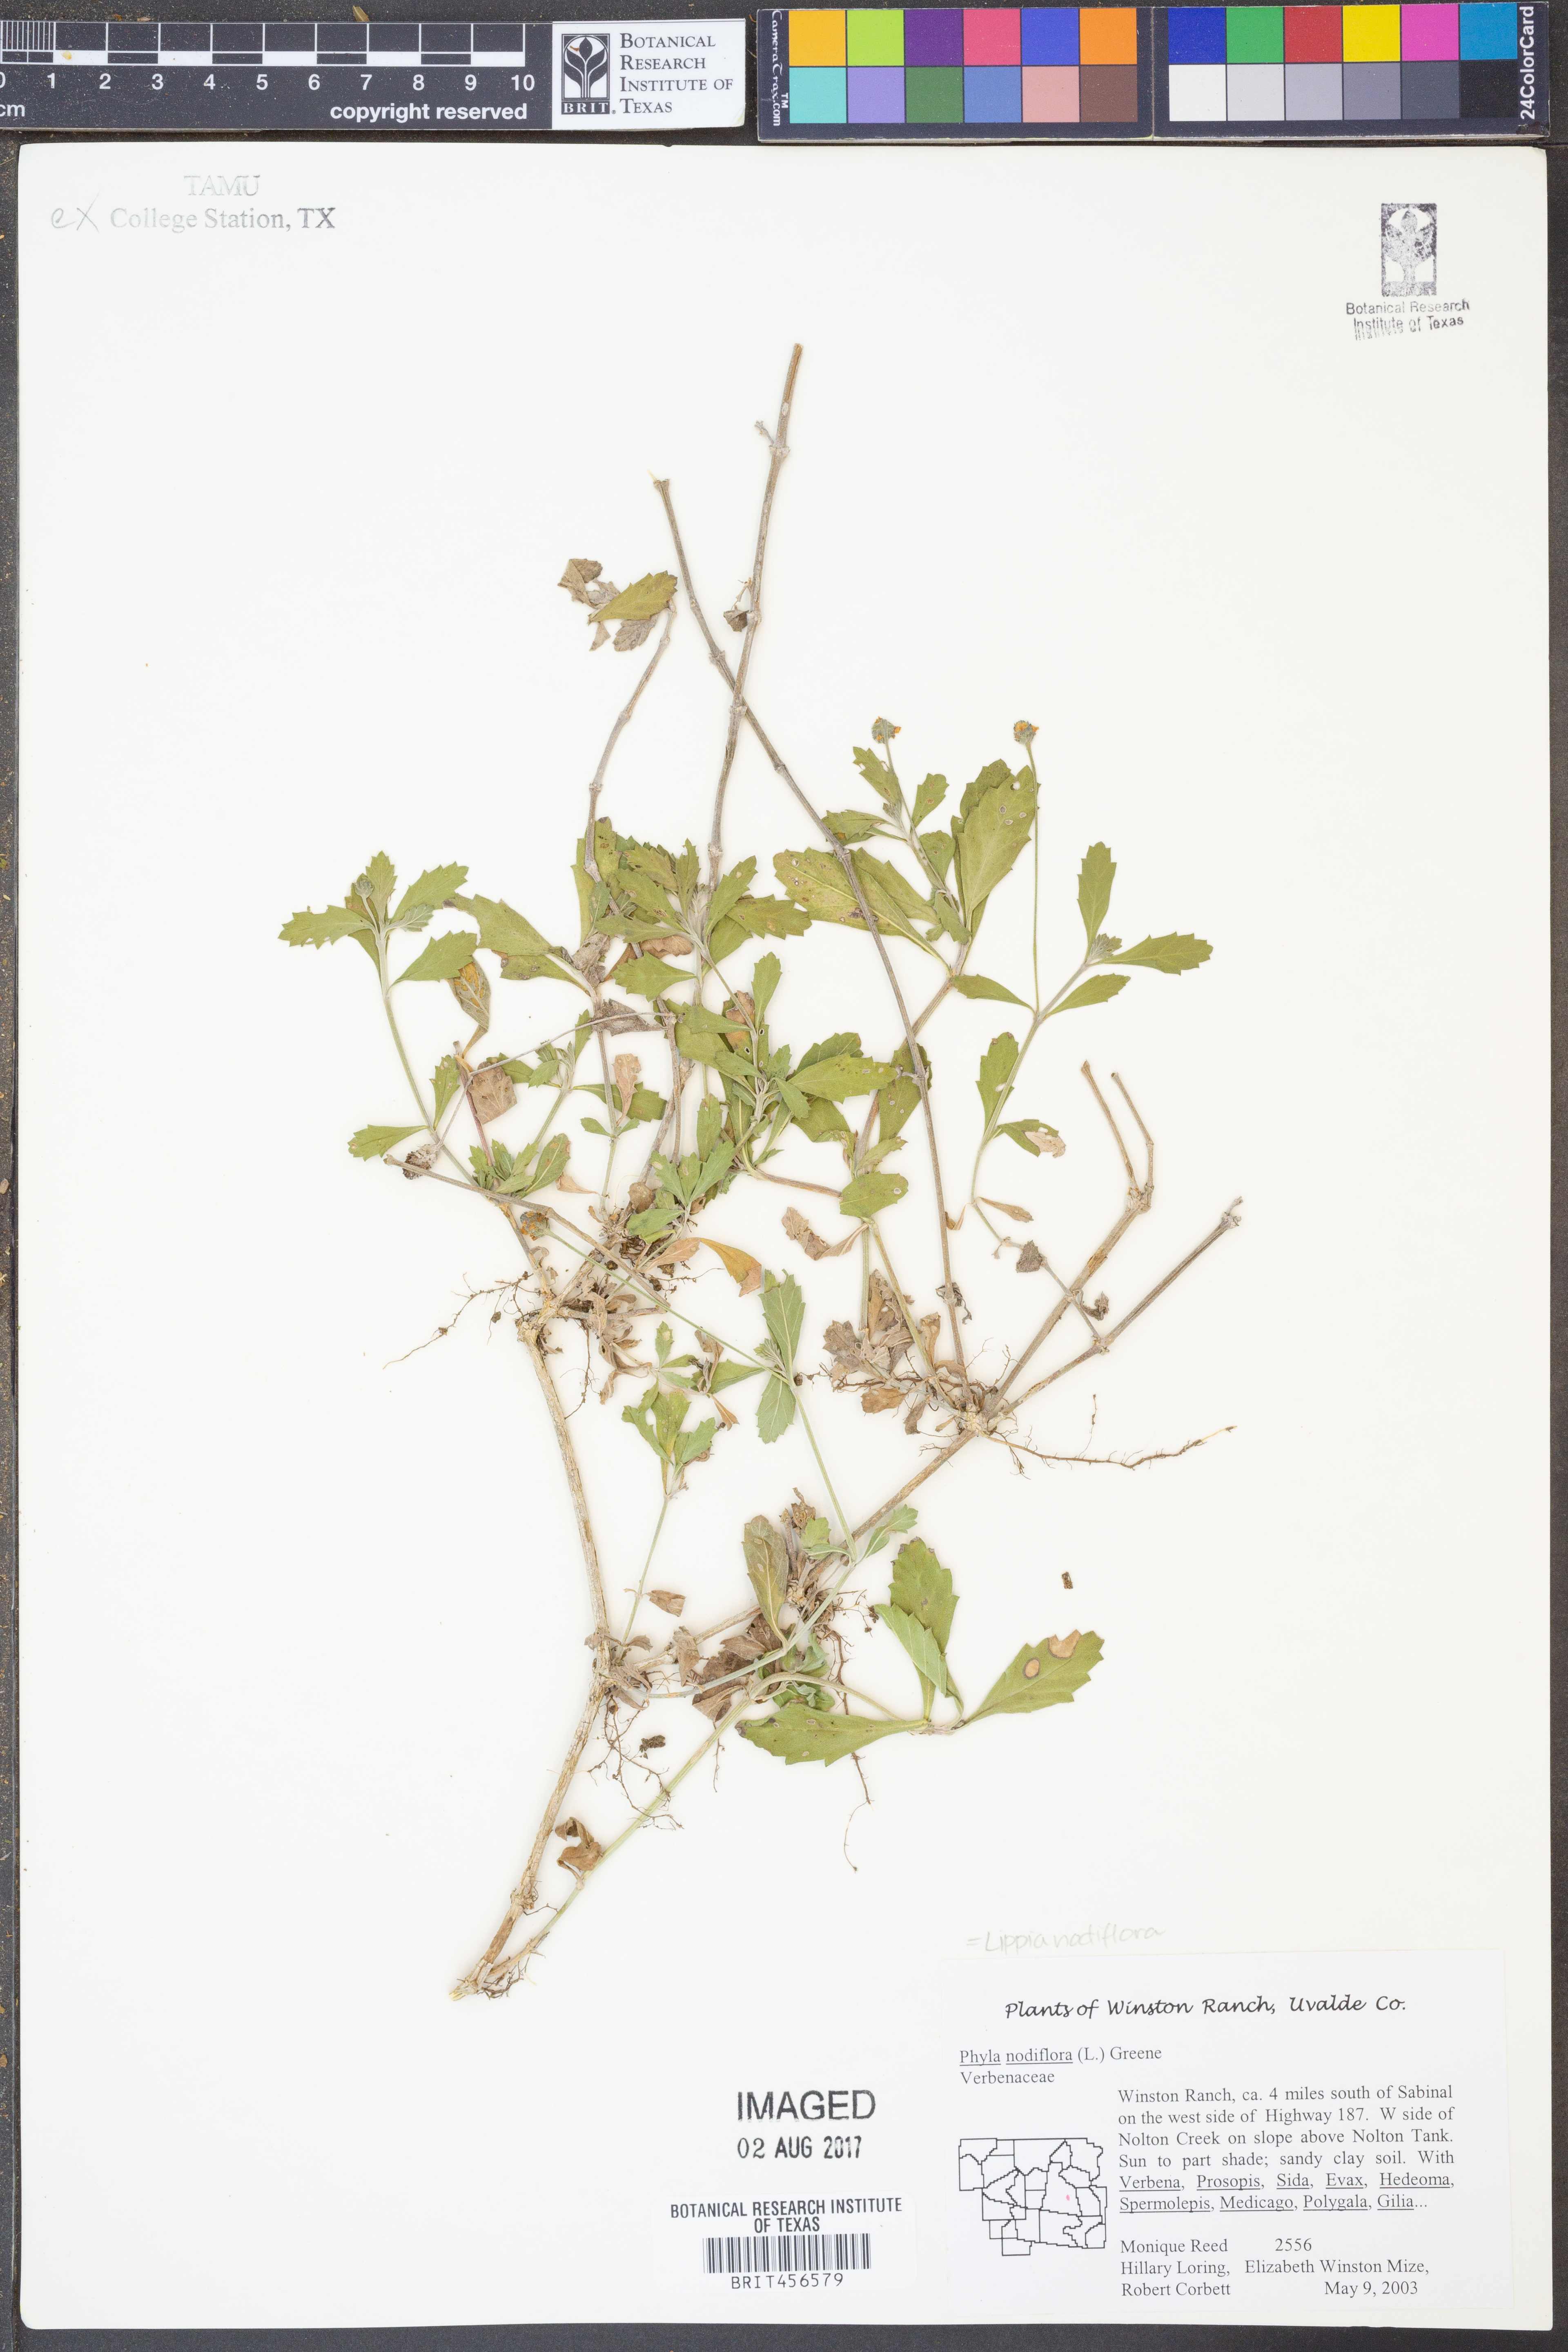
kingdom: Plantae
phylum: Tracheophyta
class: Magnoliopsida
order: Lamiales
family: Verbenaceae
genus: Phyla
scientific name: Phyla nodiflora
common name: Frogfruit
